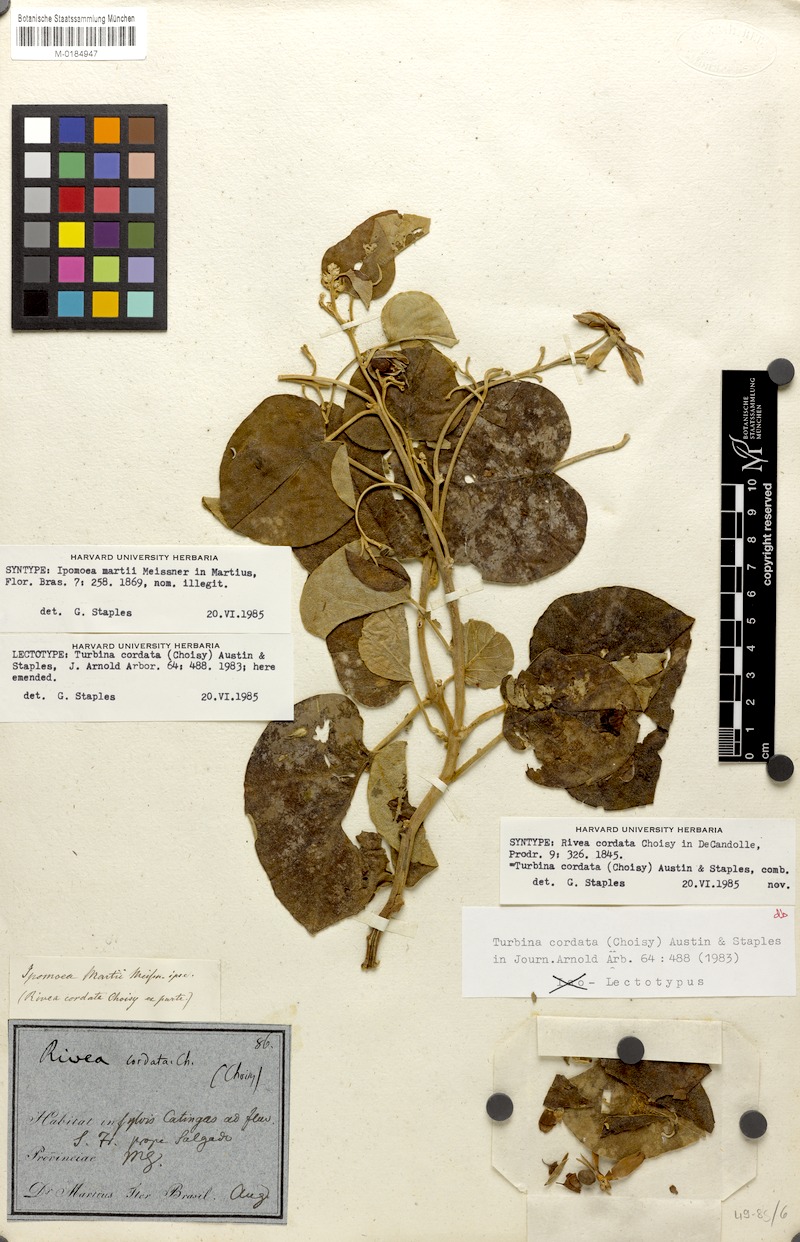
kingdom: Plantae
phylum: Tracheophyta
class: Magnoliopsida
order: Solanales
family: Convolvulaceae
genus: Ipomoea
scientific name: Ipomoea sericosepala
